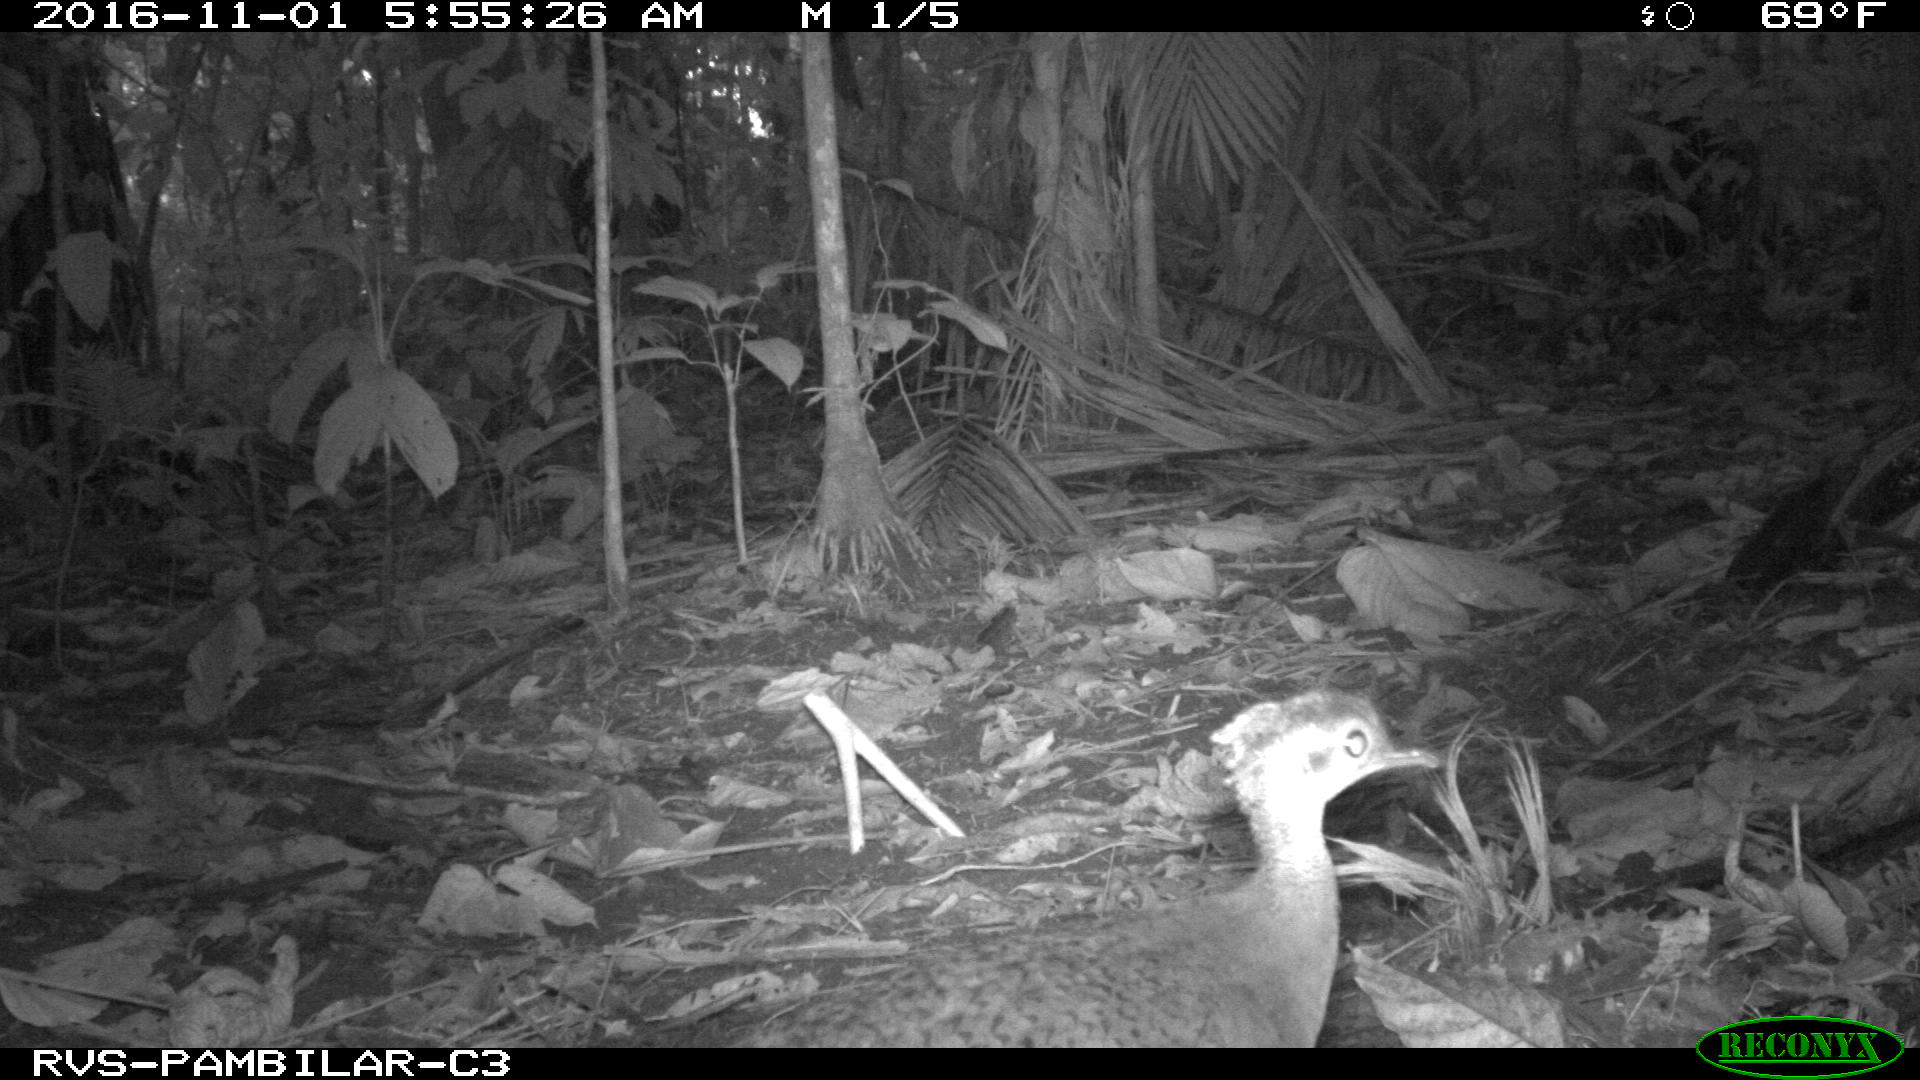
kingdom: Animalia
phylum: Chordata
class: Aves
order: Tinamiformes
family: Tinamidae
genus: Tinamus
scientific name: Tinamus major
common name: Great tinamou
